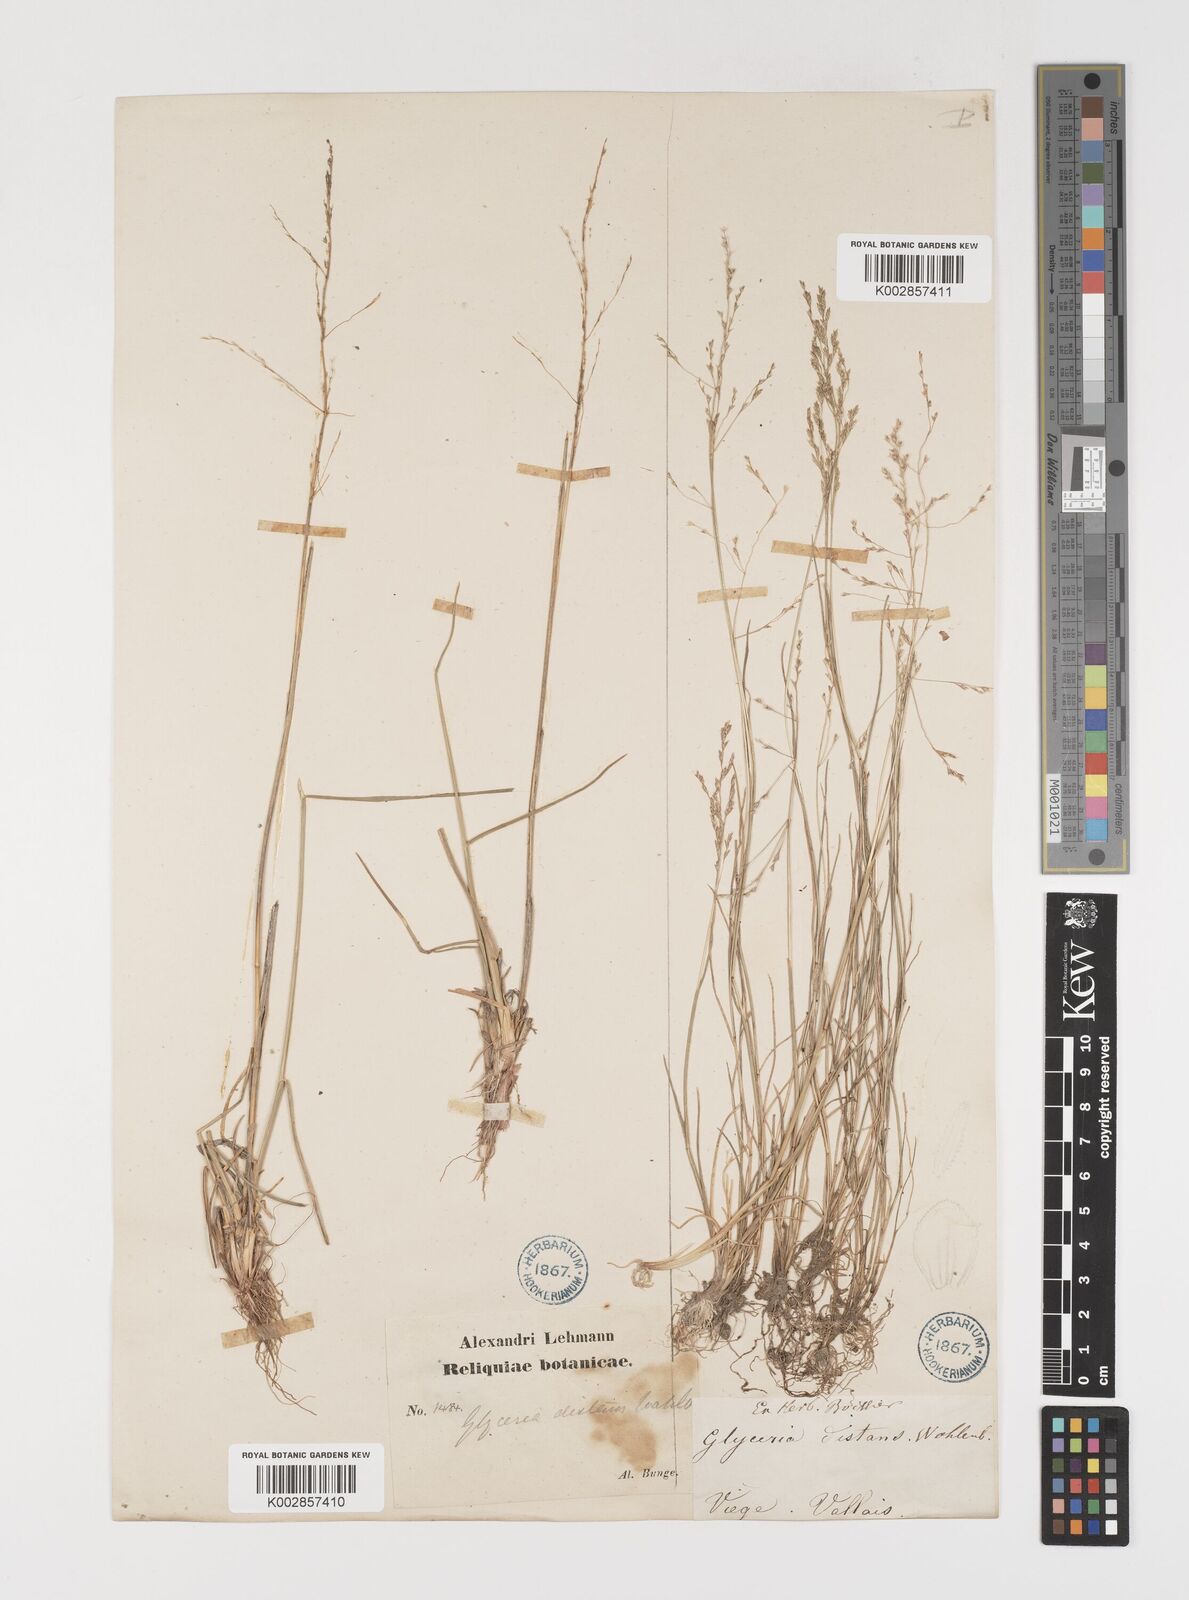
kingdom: Plantae
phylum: Tracheophyta
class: Liliopsida
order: Poales
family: Poaceae
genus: Puccinellia
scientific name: Puccinellia distans
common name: Weeping alkaligrass
